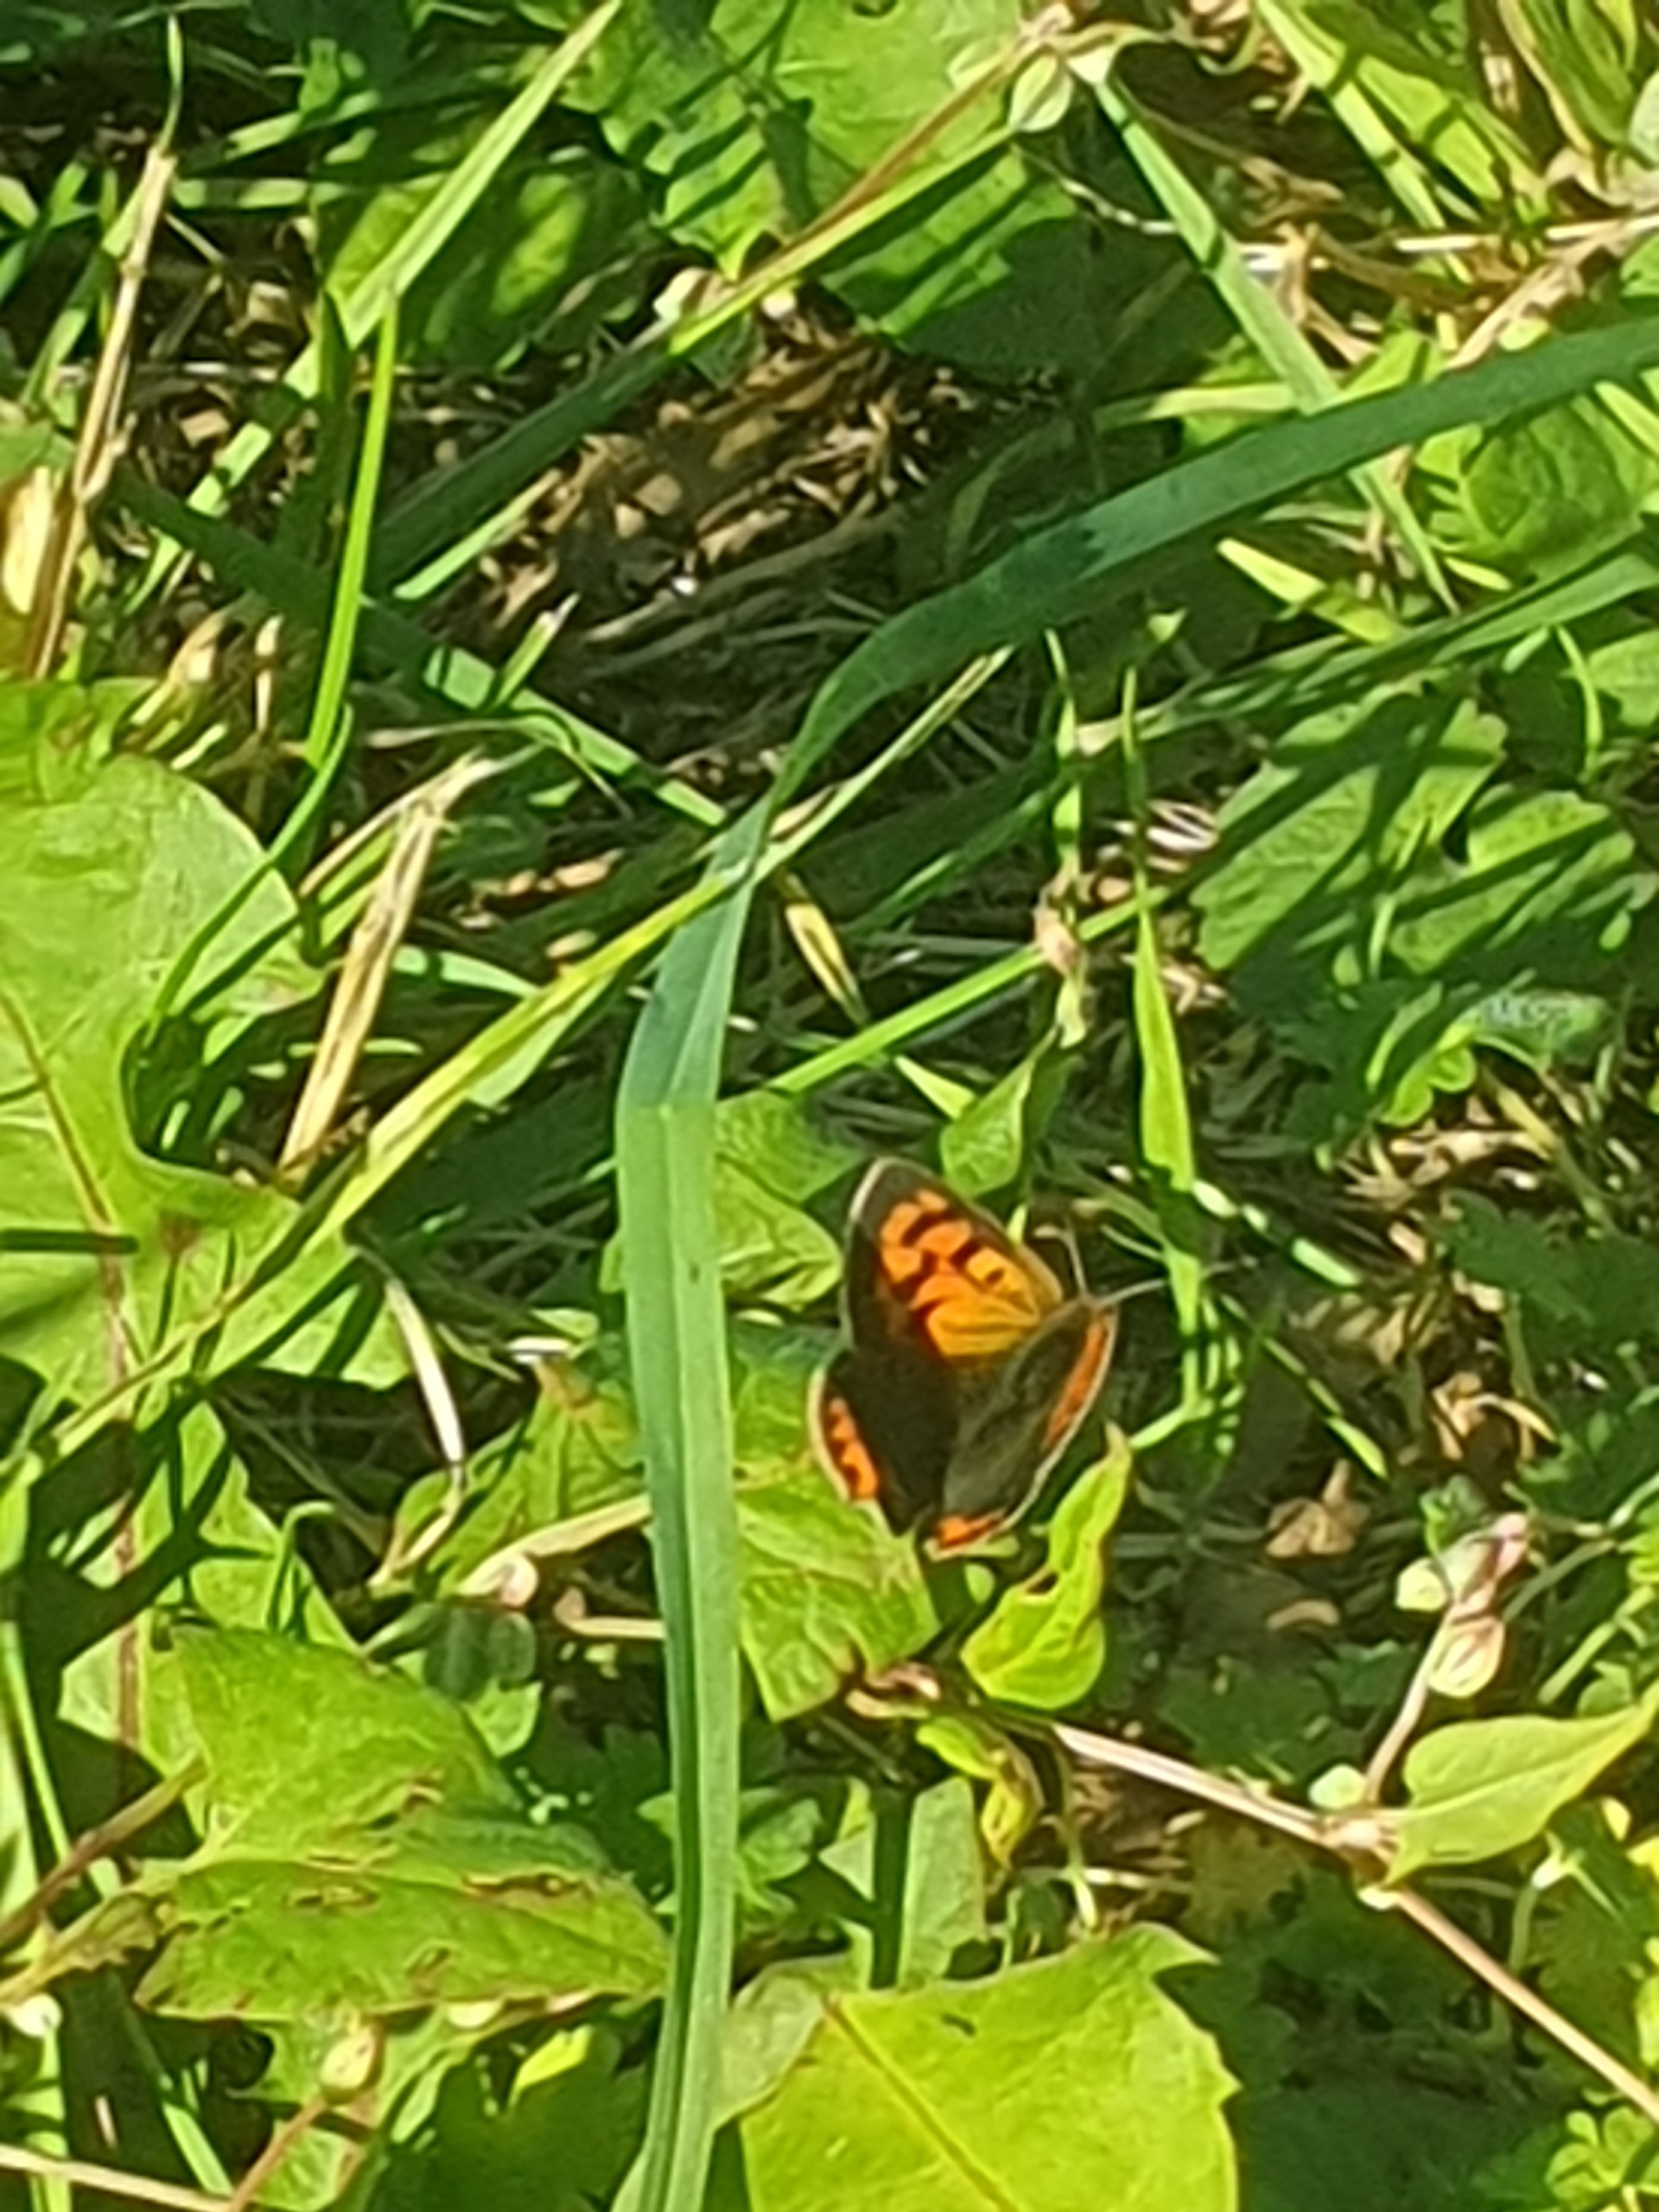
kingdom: Animalia
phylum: Arthropoda
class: Insecta
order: Lepidoptera
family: Lycaenidae
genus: Lycaena
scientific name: Lycaena phlaeas
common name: Lille ildfugl
